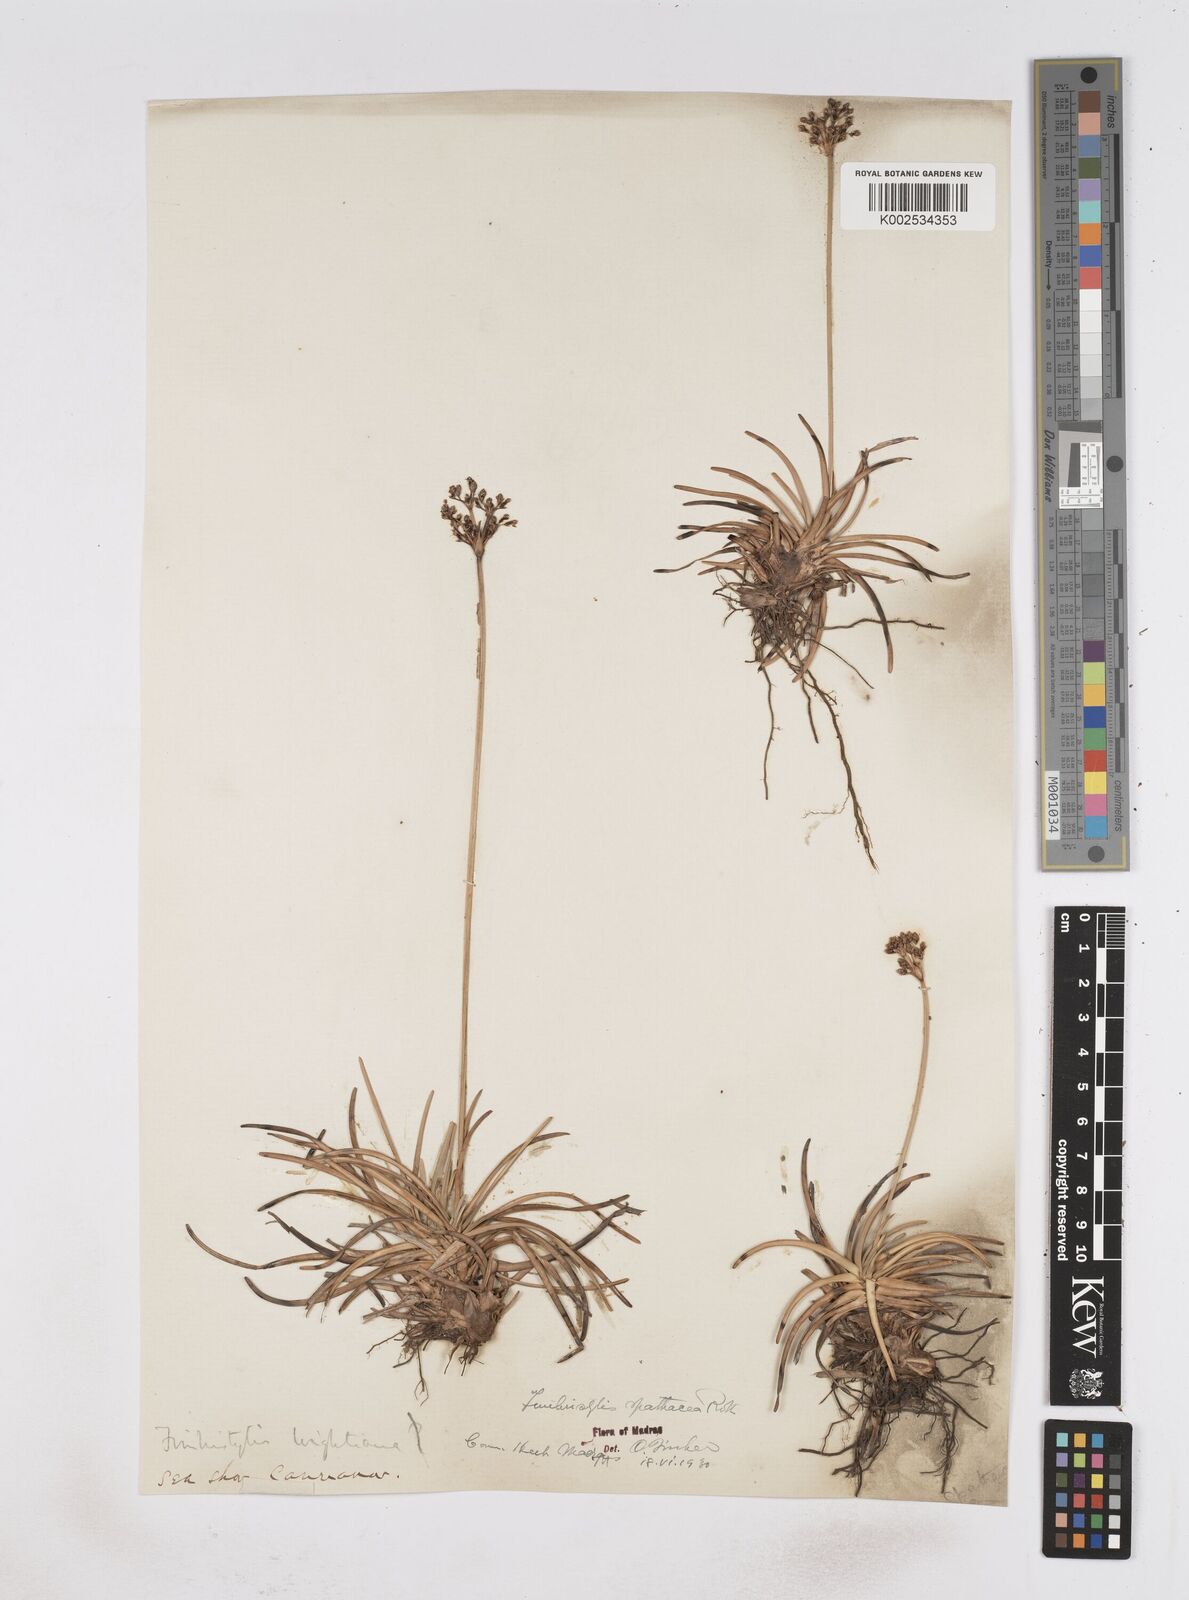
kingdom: Plantae
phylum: Tracheophyta
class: Liliopsida
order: Poales
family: Cyperaceae
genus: Fimbristylis
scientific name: Fimbristylis cymosa
